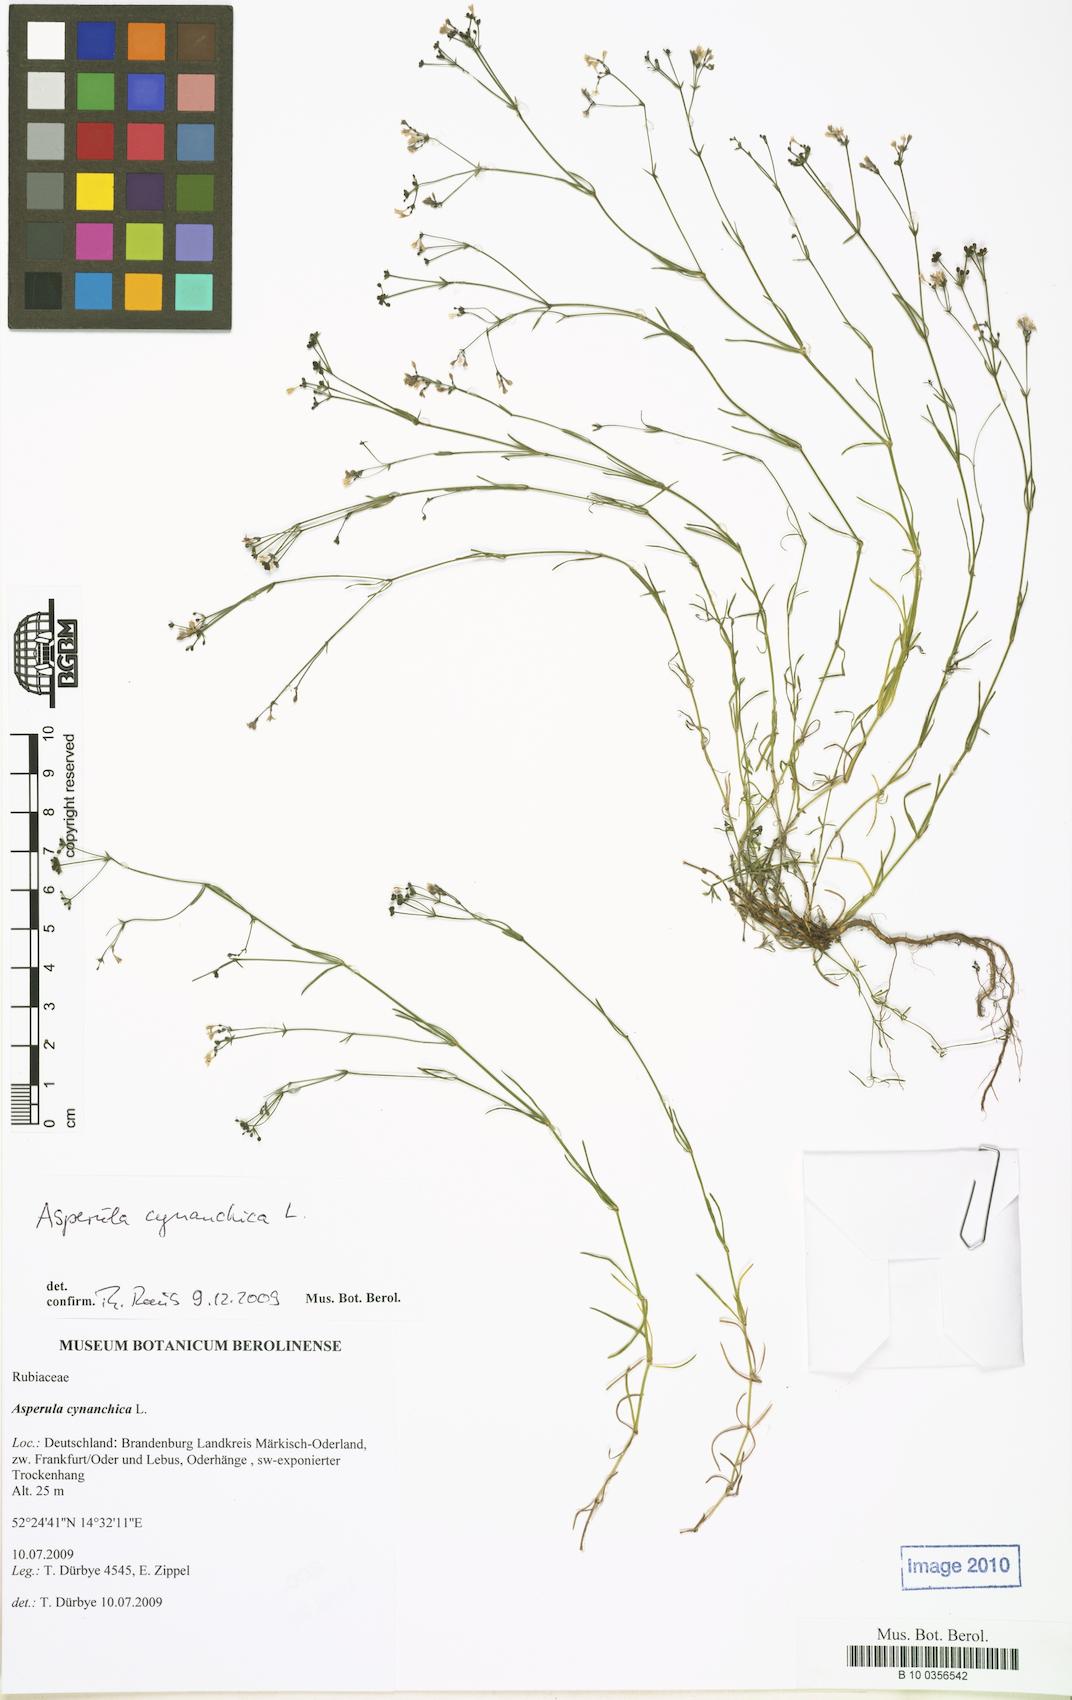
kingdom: Plantae
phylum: Tracheophyta
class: Magnoliopsida
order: Gentianales
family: Rubiaceae
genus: Cynanchica
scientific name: Cynanchica pyrenaica
